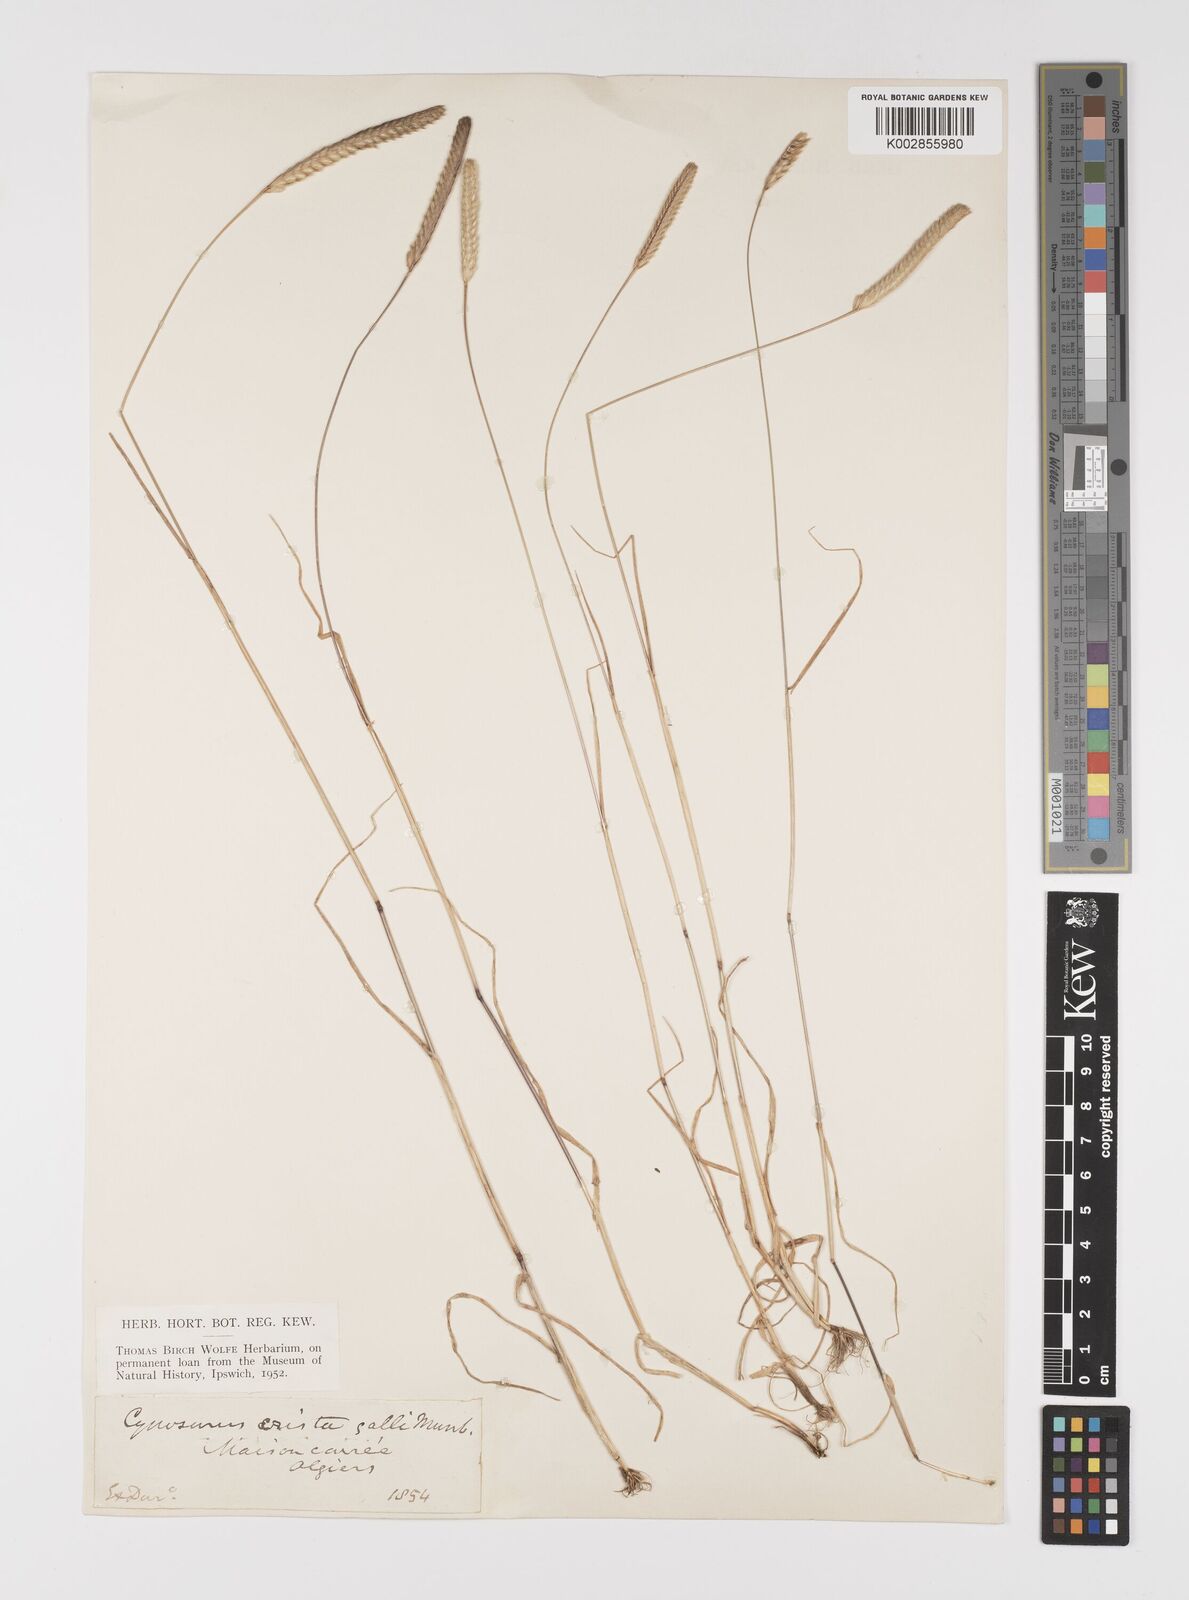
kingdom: Plantae
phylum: Tracheophyta
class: Liliopsida
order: Poales
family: Poaceae
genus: Cynosurus
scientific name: Cynosurus cristatus
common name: Crested dog's-tail
